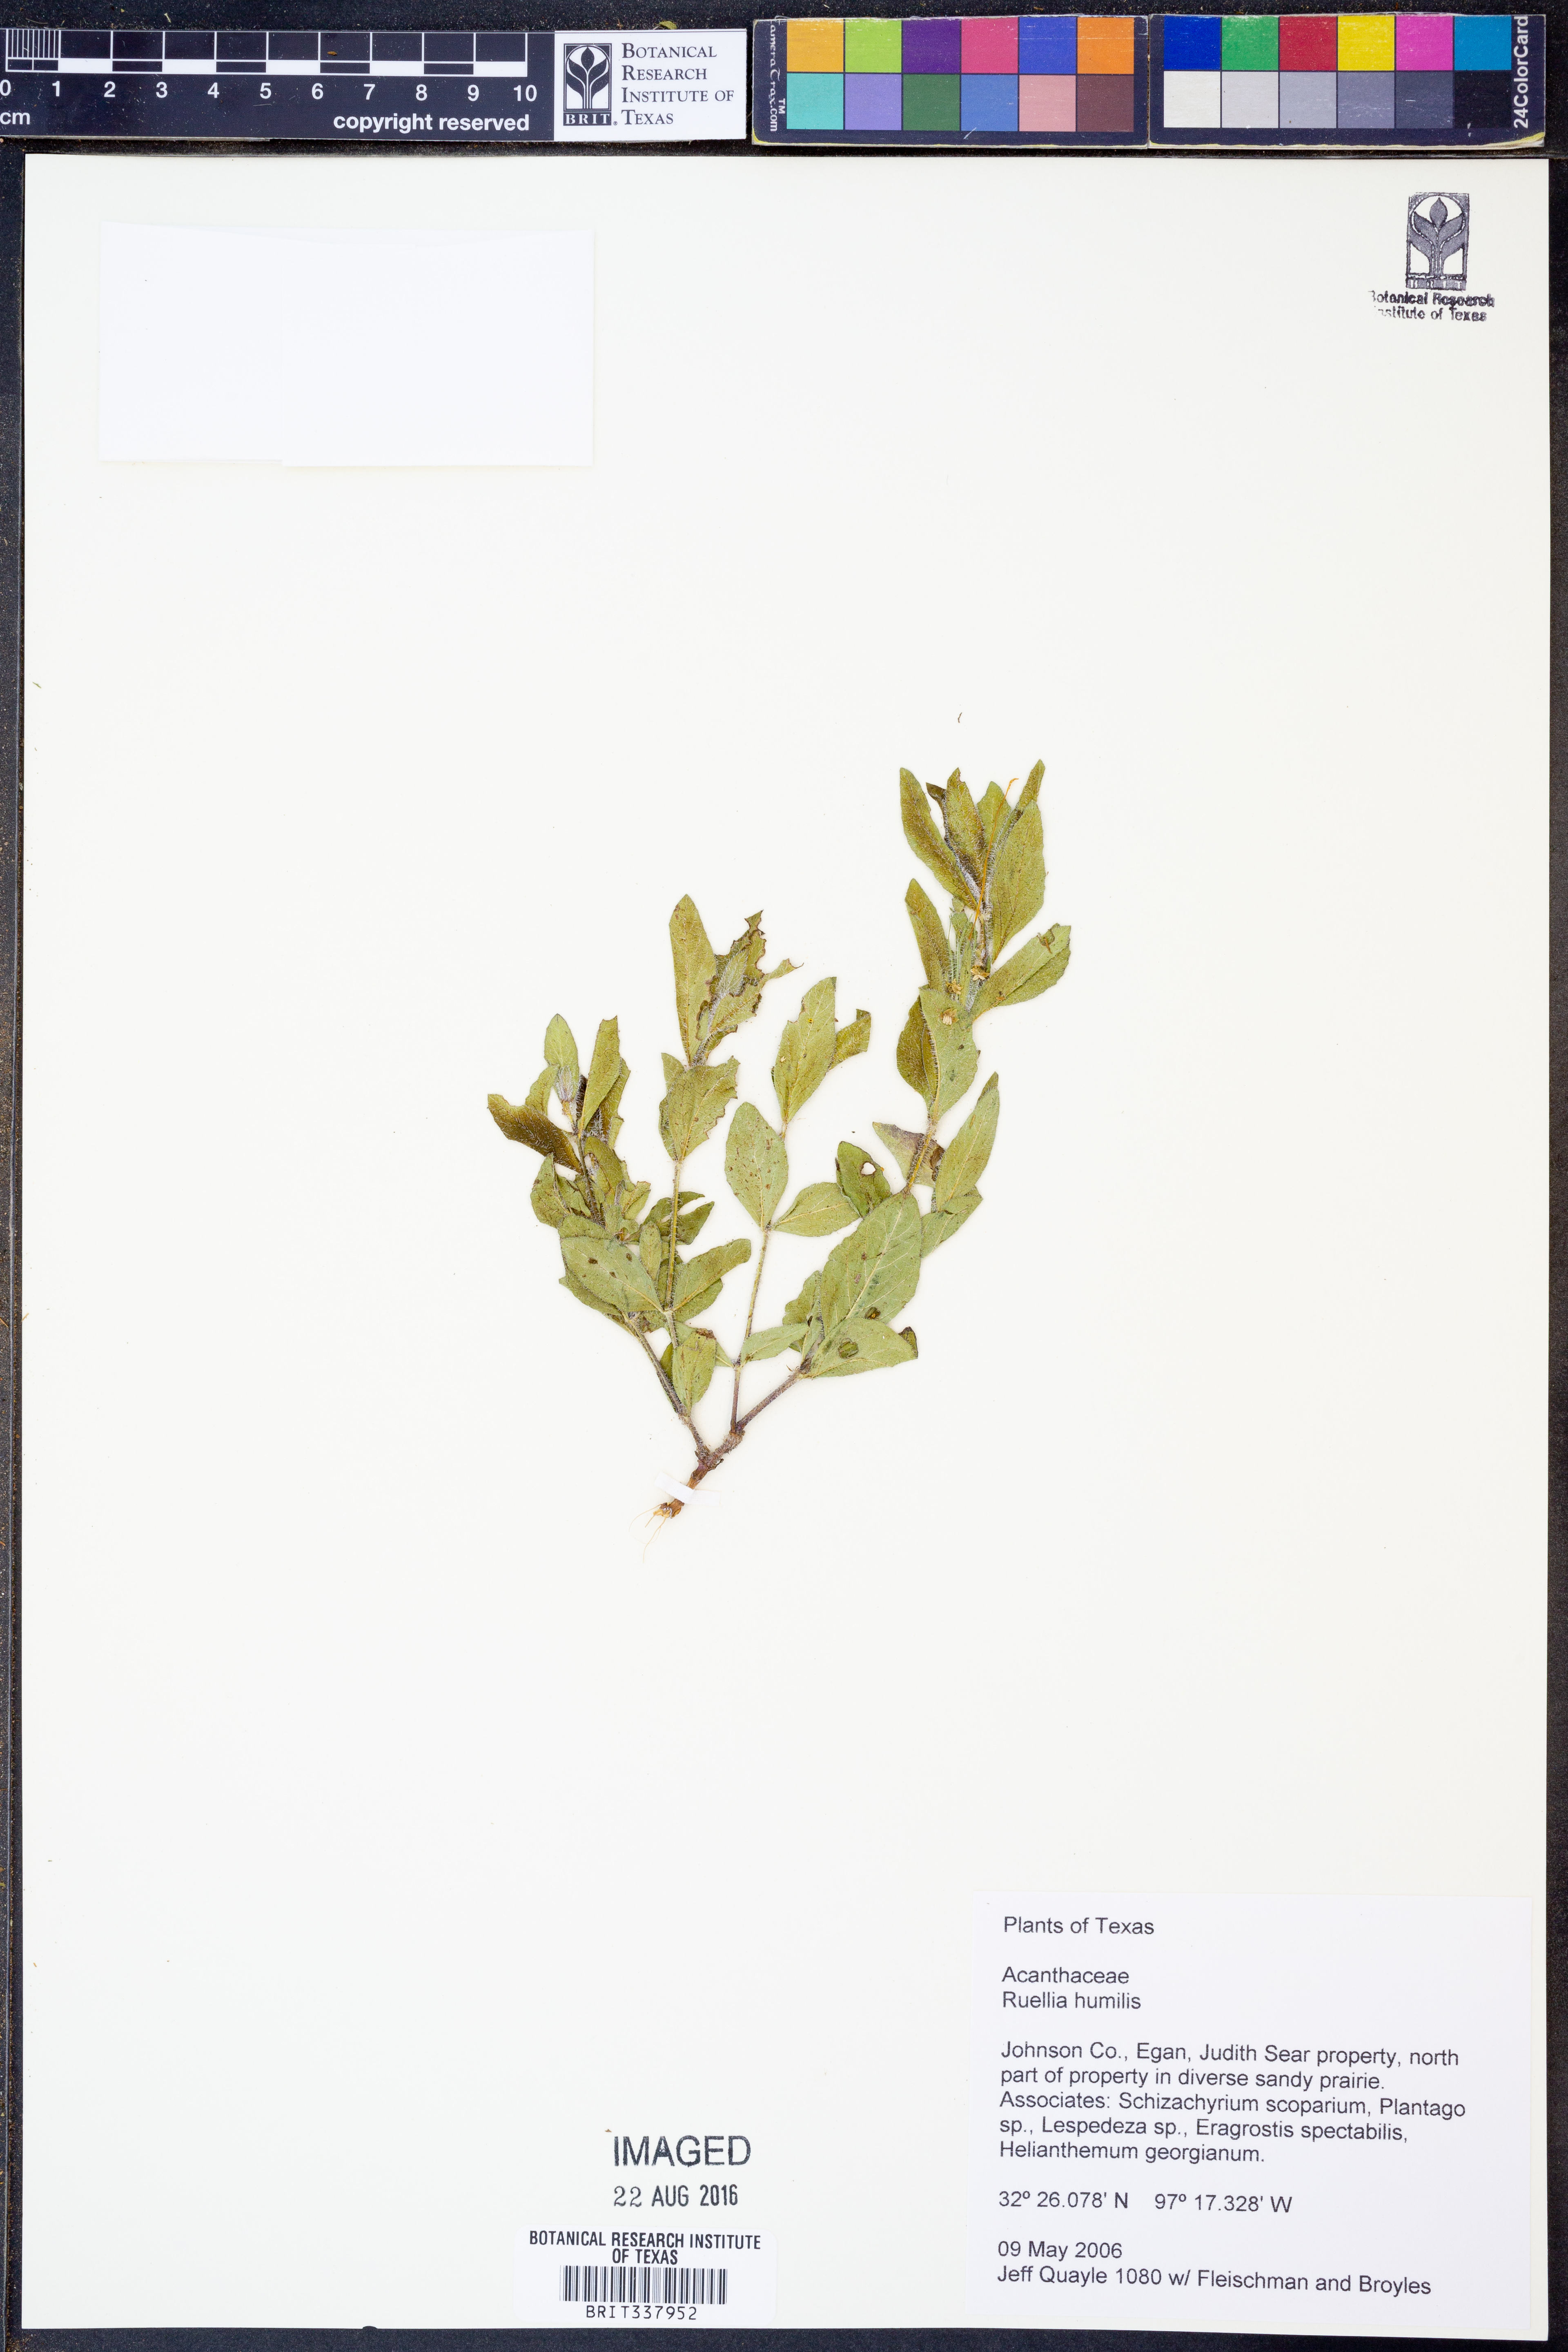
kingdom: Plantae
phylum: Tracheophyta
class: Magnoliopsida
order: Lamiales
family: Acanthaceae
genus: Ruellia
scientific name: Ruellia humilis
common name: Fringe-leaf ruellia
